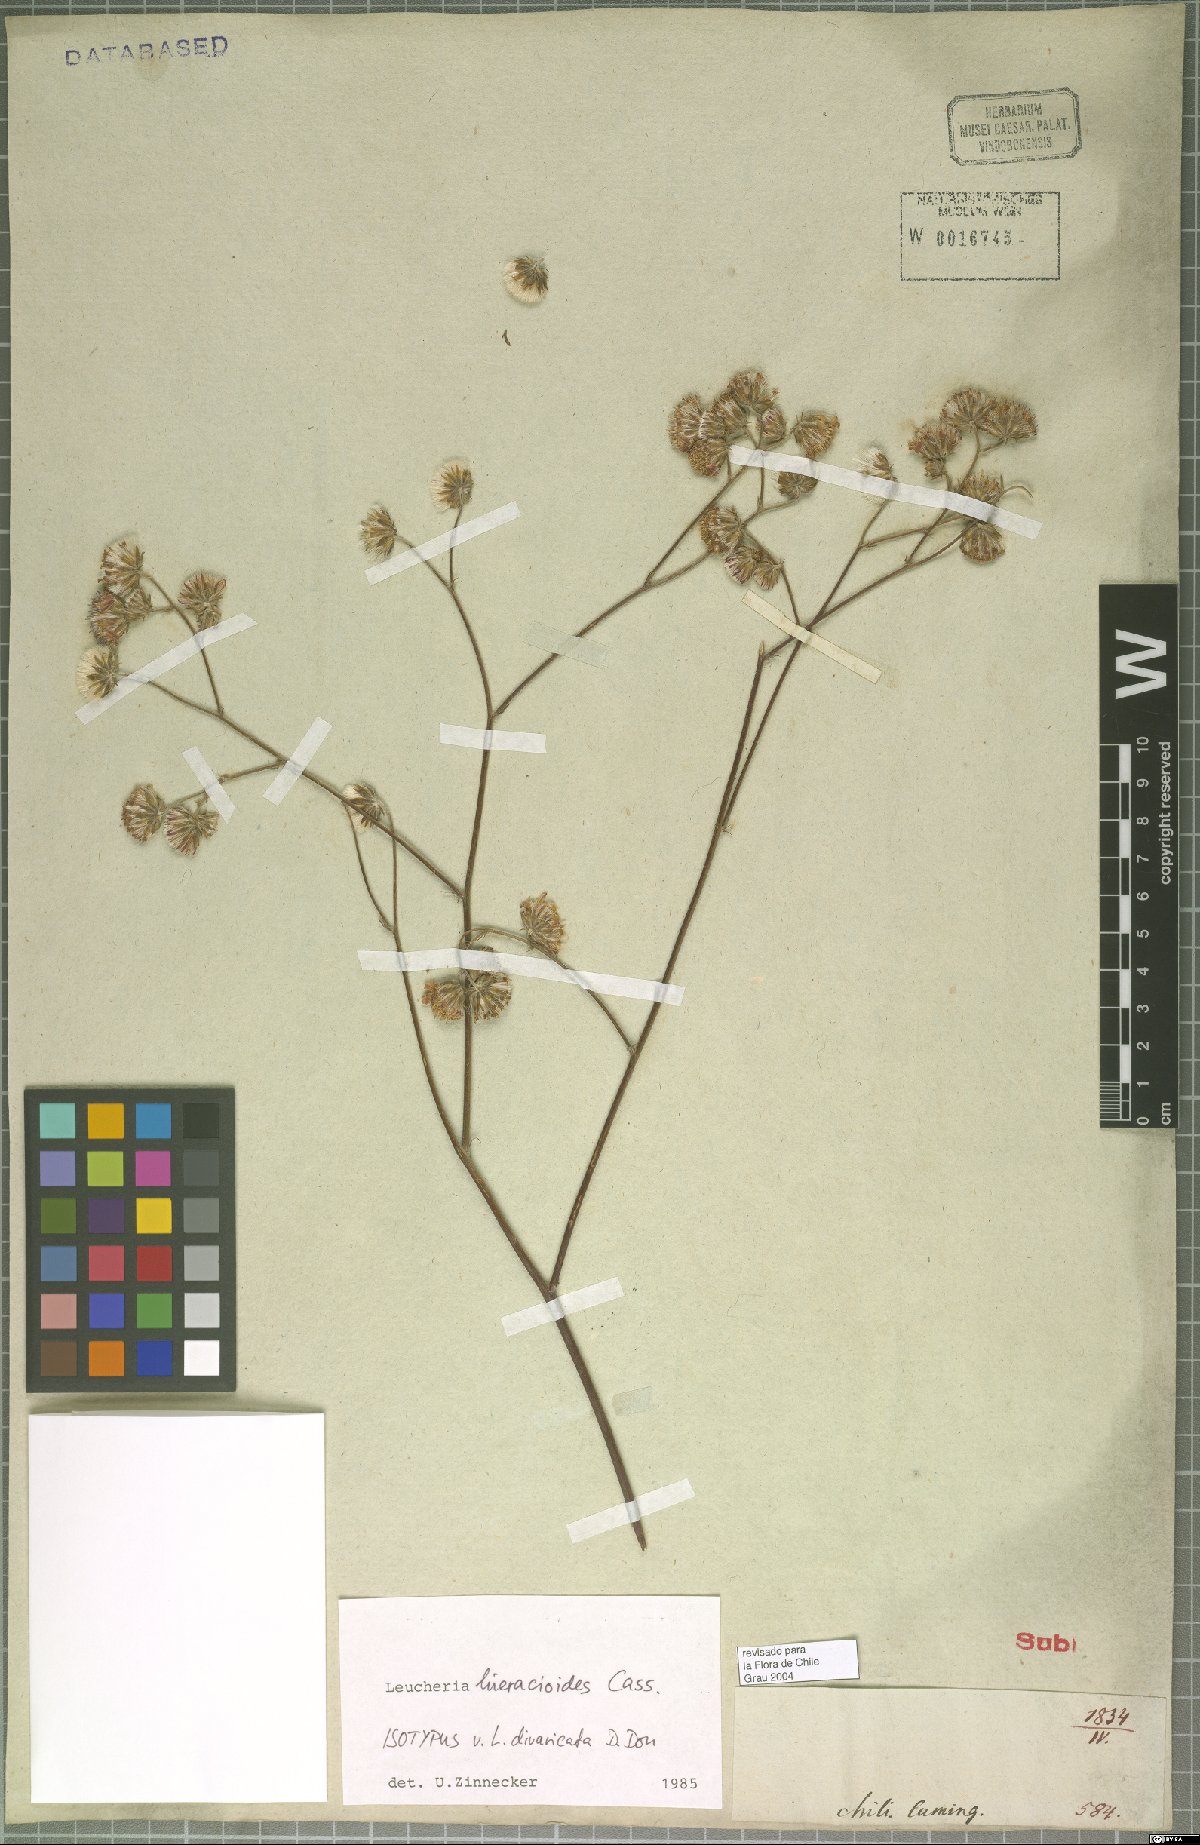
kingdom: Plantae
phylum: Tracheophyta
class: Magnoliopsida
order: Asterales
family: Asteraceae
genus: Leucheria
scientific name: Leucheria hieracioides
